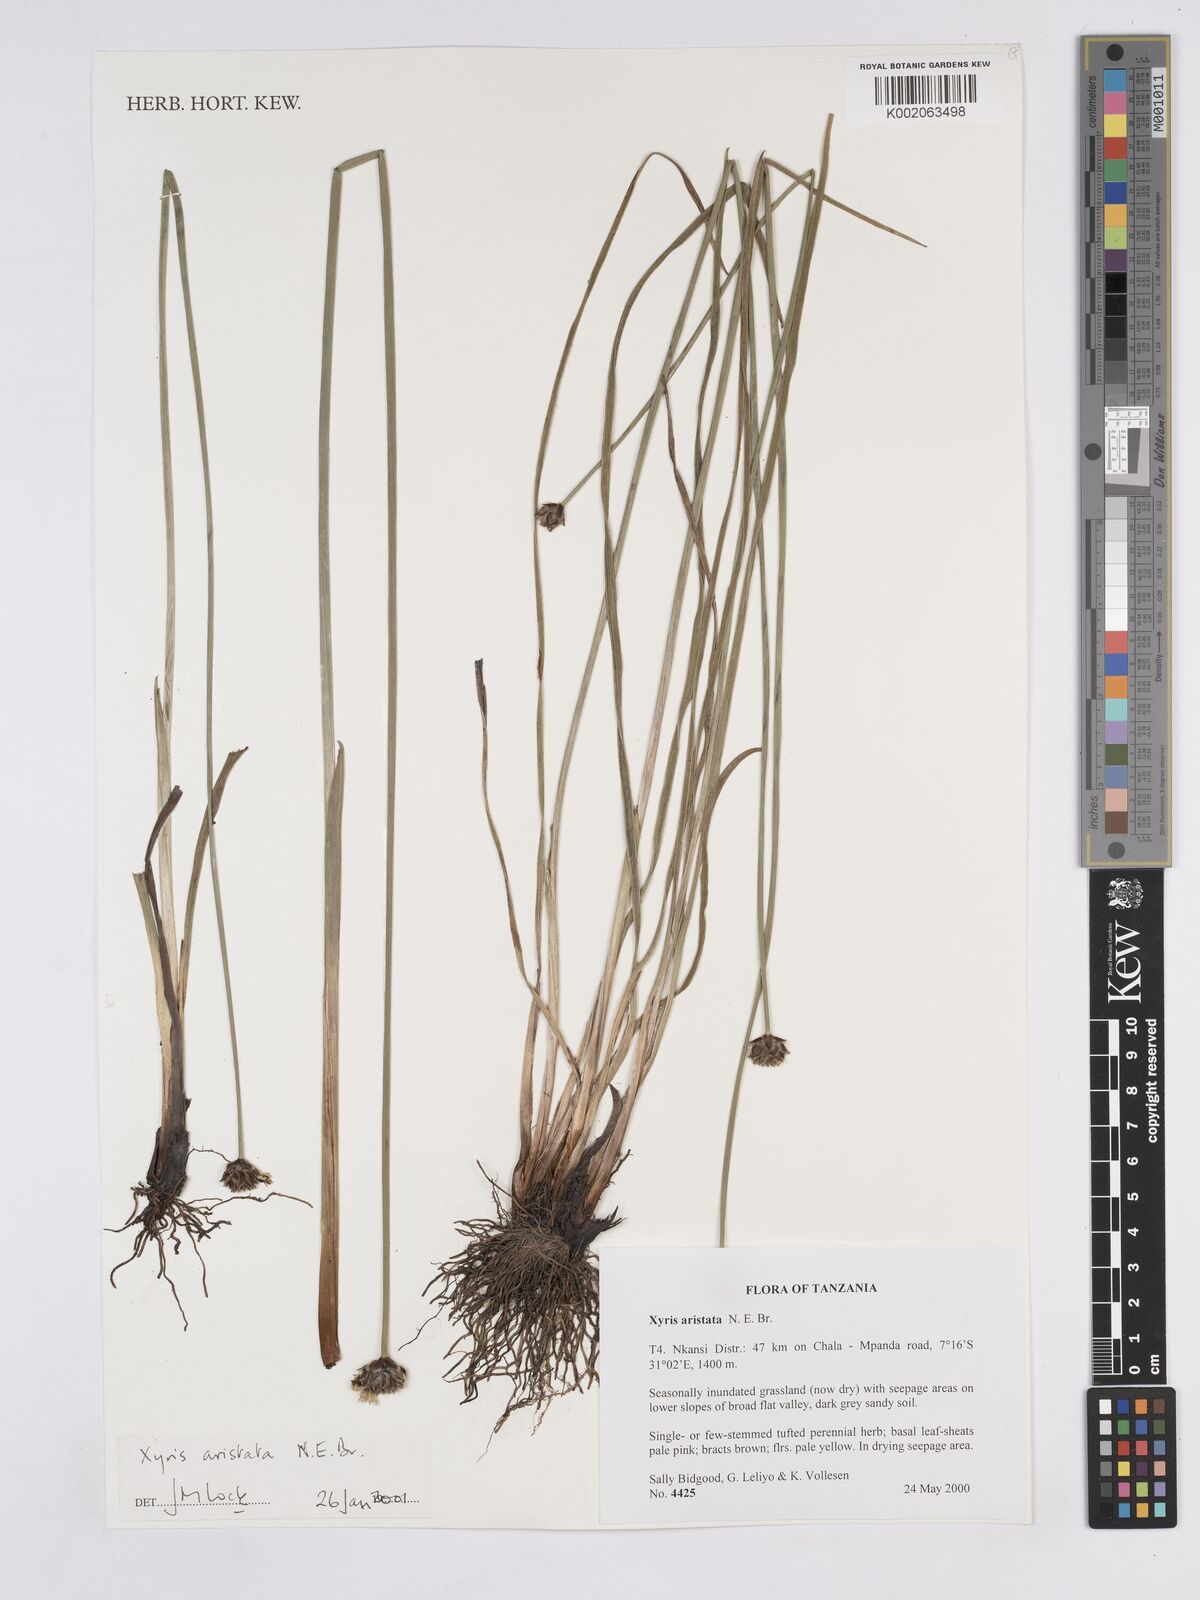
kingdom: Plantae
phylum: Tracheophyta
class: Liliopsida
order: Poales
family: Xyridaceae
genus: Xyris
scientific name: Xyris aristata
